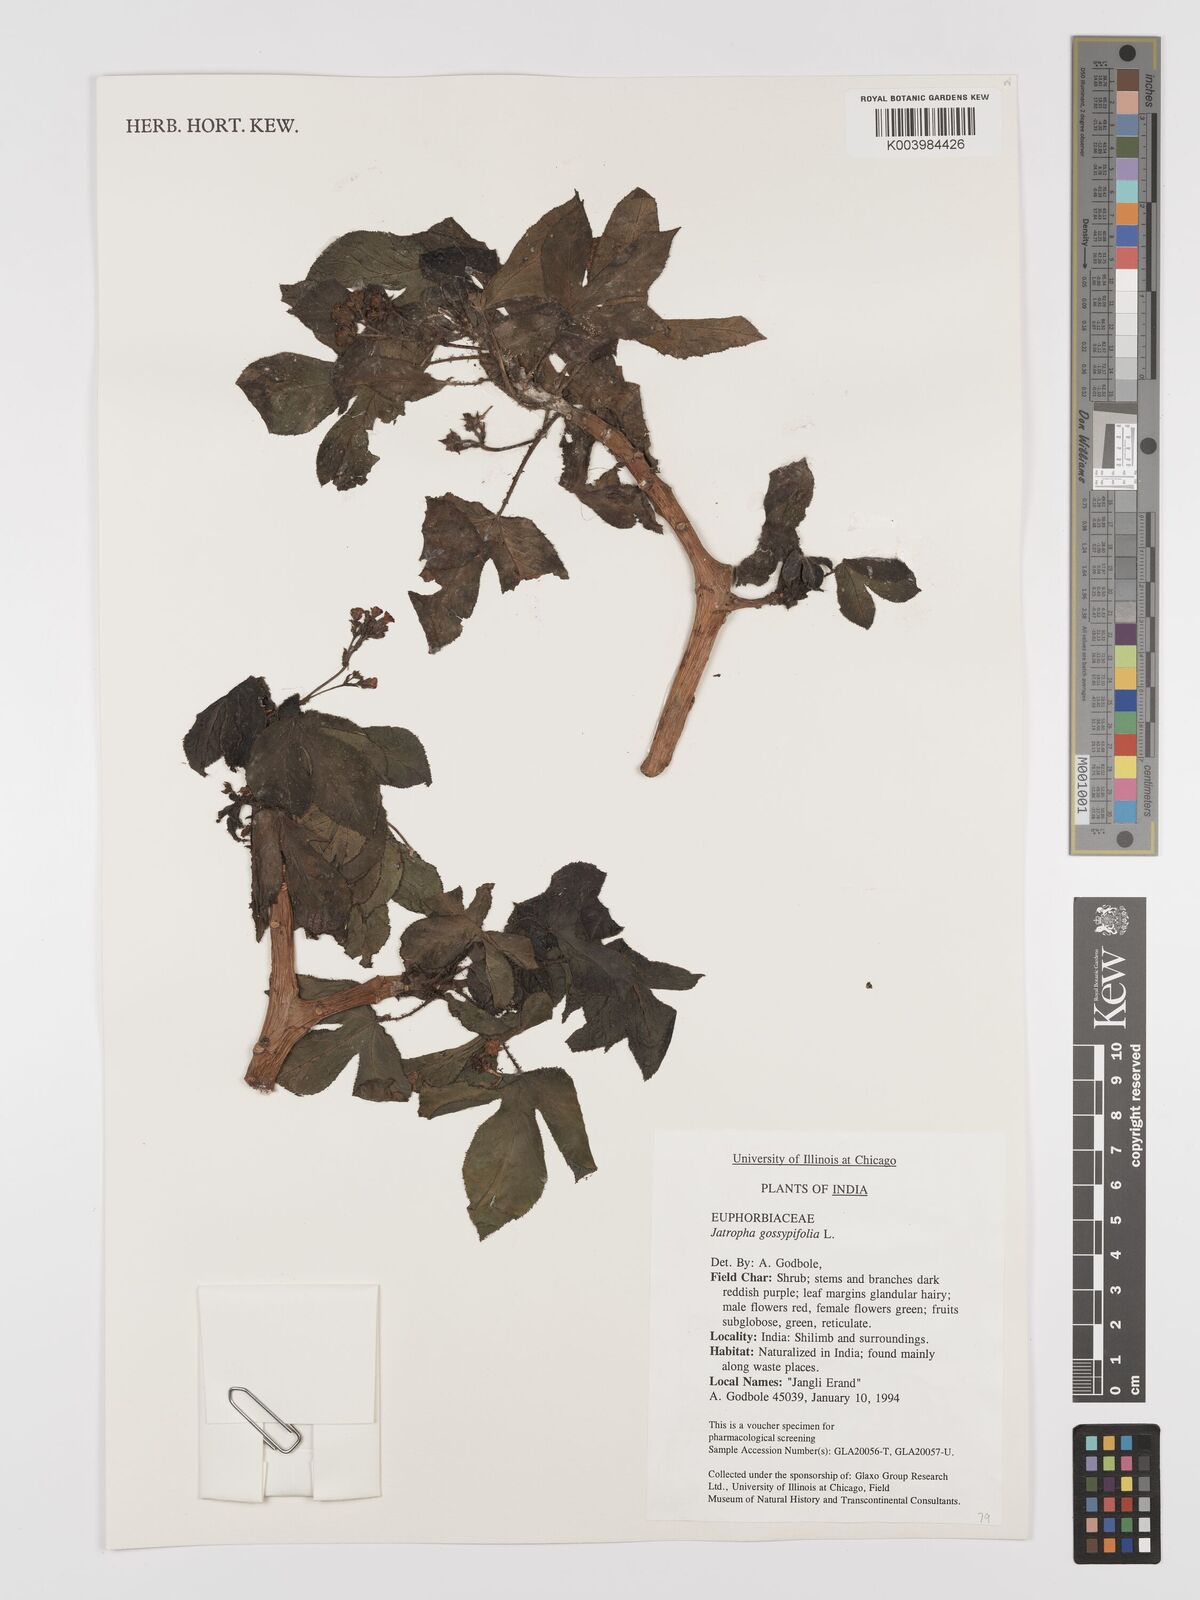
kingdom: Plantae
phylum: Tracheophyta
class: Magnoliopsida
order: Malpighiales
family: Euphorbiaceae
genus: Jatropha
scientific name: Jatropha gossypiifolia
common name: Bellyache bush
